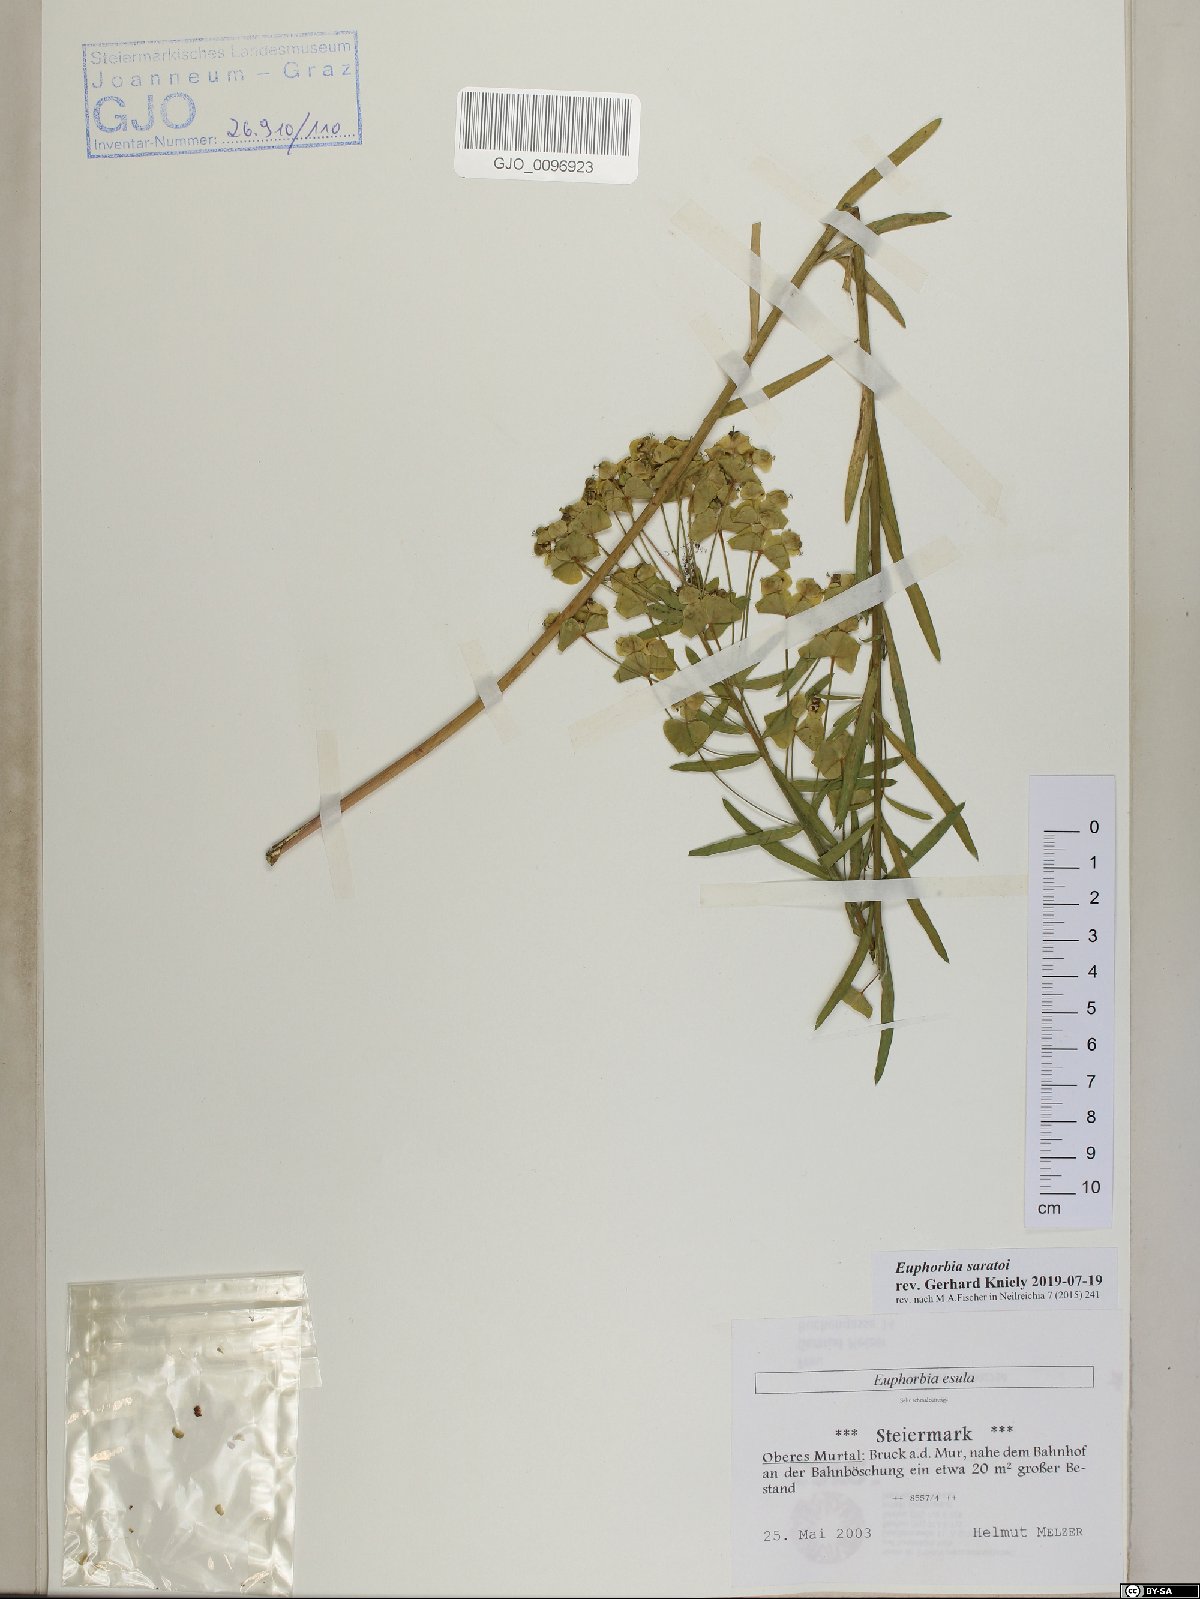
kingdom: Plantae
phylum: Tracheophyta
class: Magnoliopsida
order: Malpighiales
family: Euphorbiaceae
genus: Euphorbia
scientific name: Euphorbia saratoi
